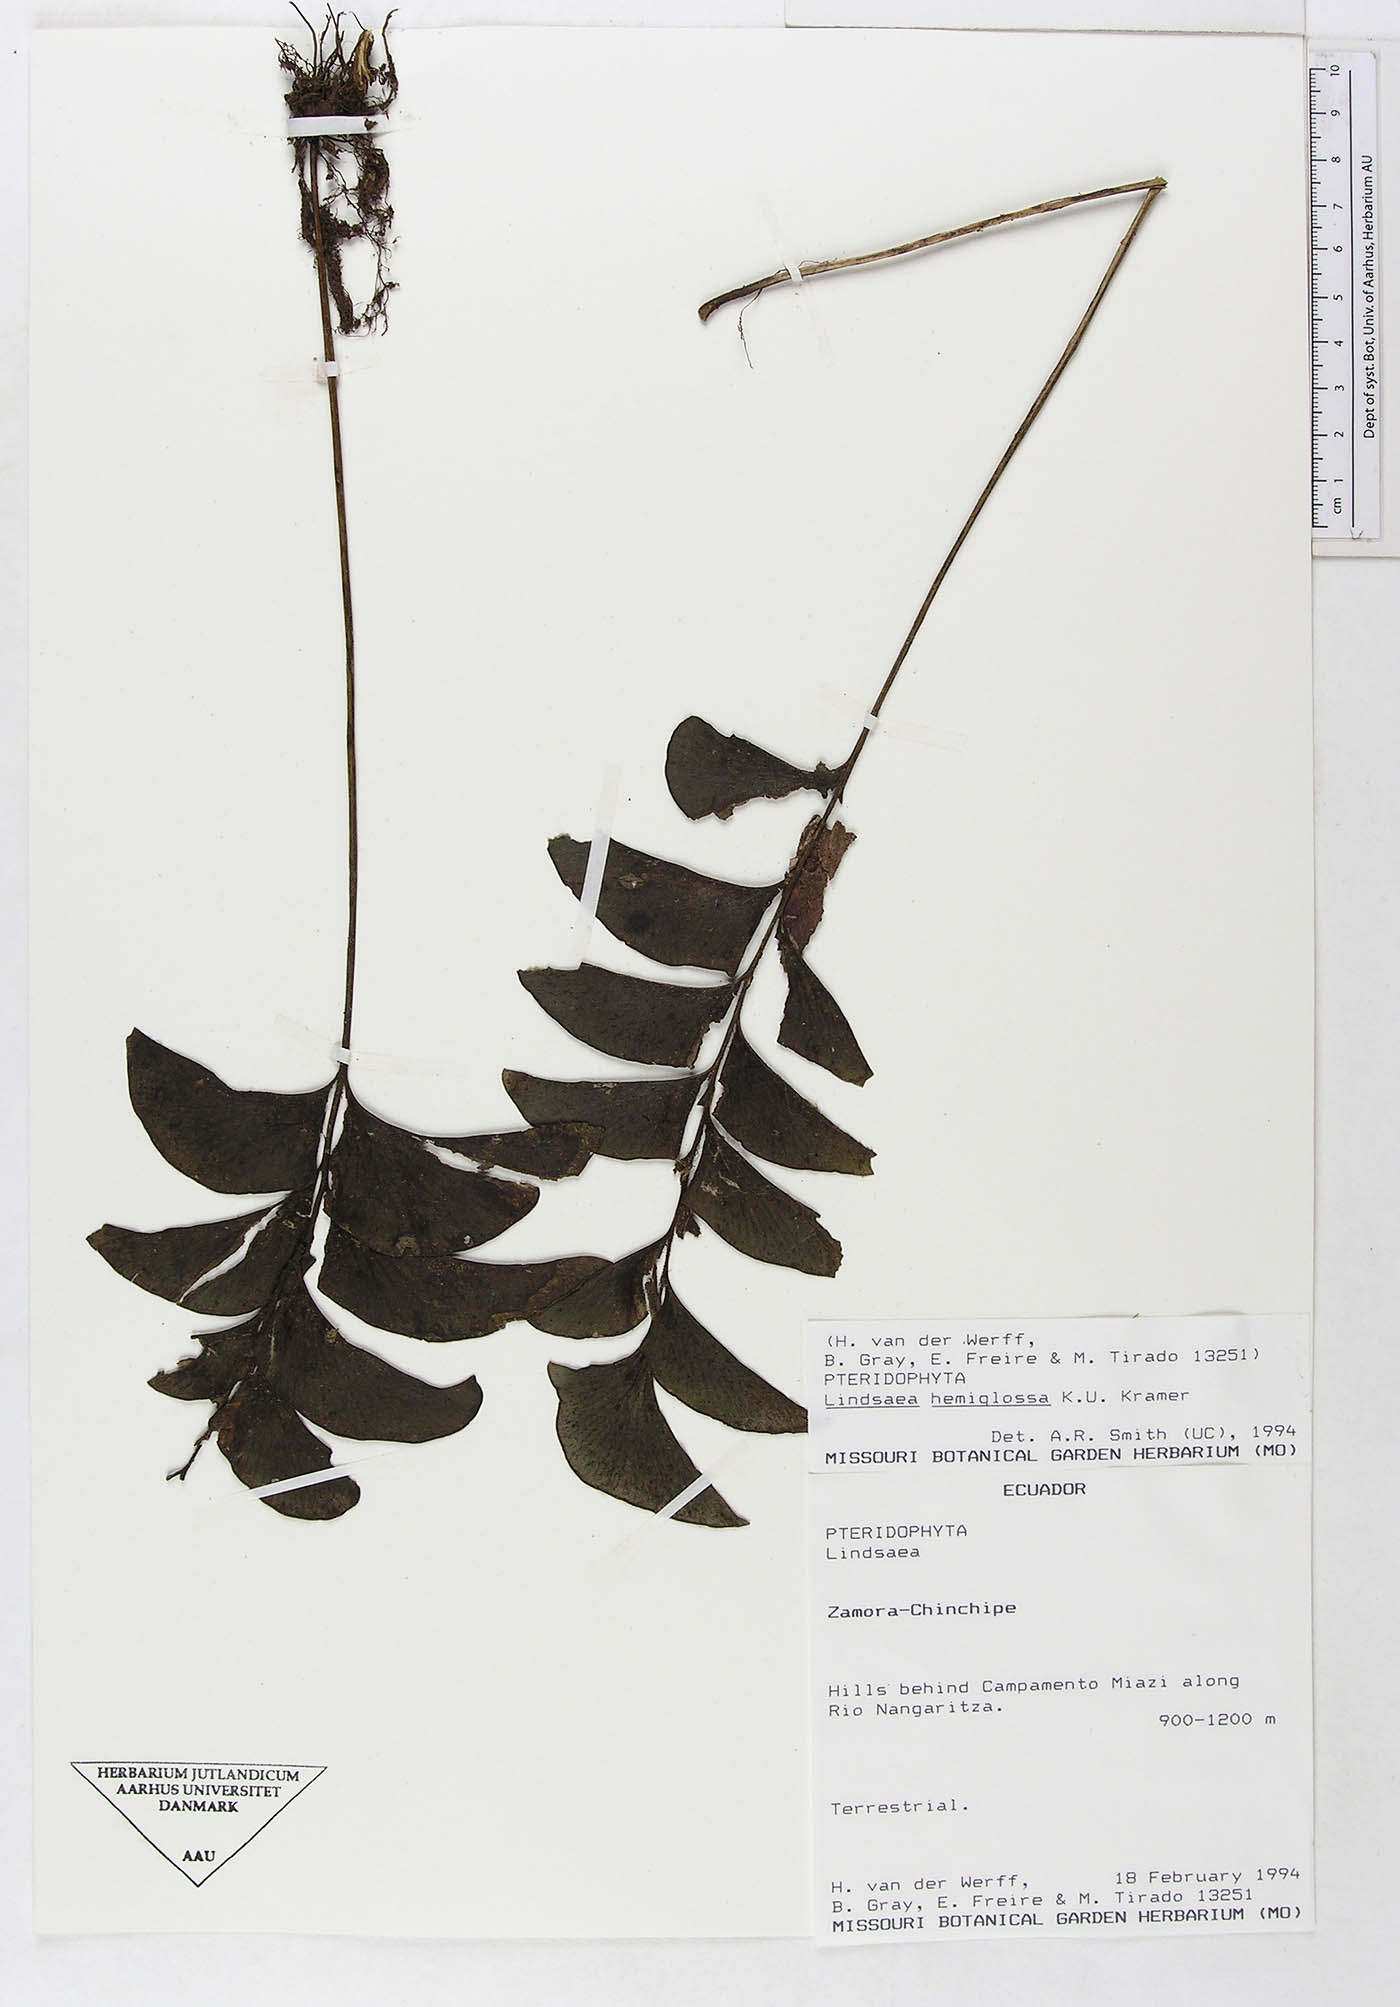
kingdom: Plantae
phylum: Tracheophyta
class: Polypodiopsida
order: Polypodiales
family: Lindsaeaceae
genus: Lindsaea
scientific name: Lindsaea hemiglossa
